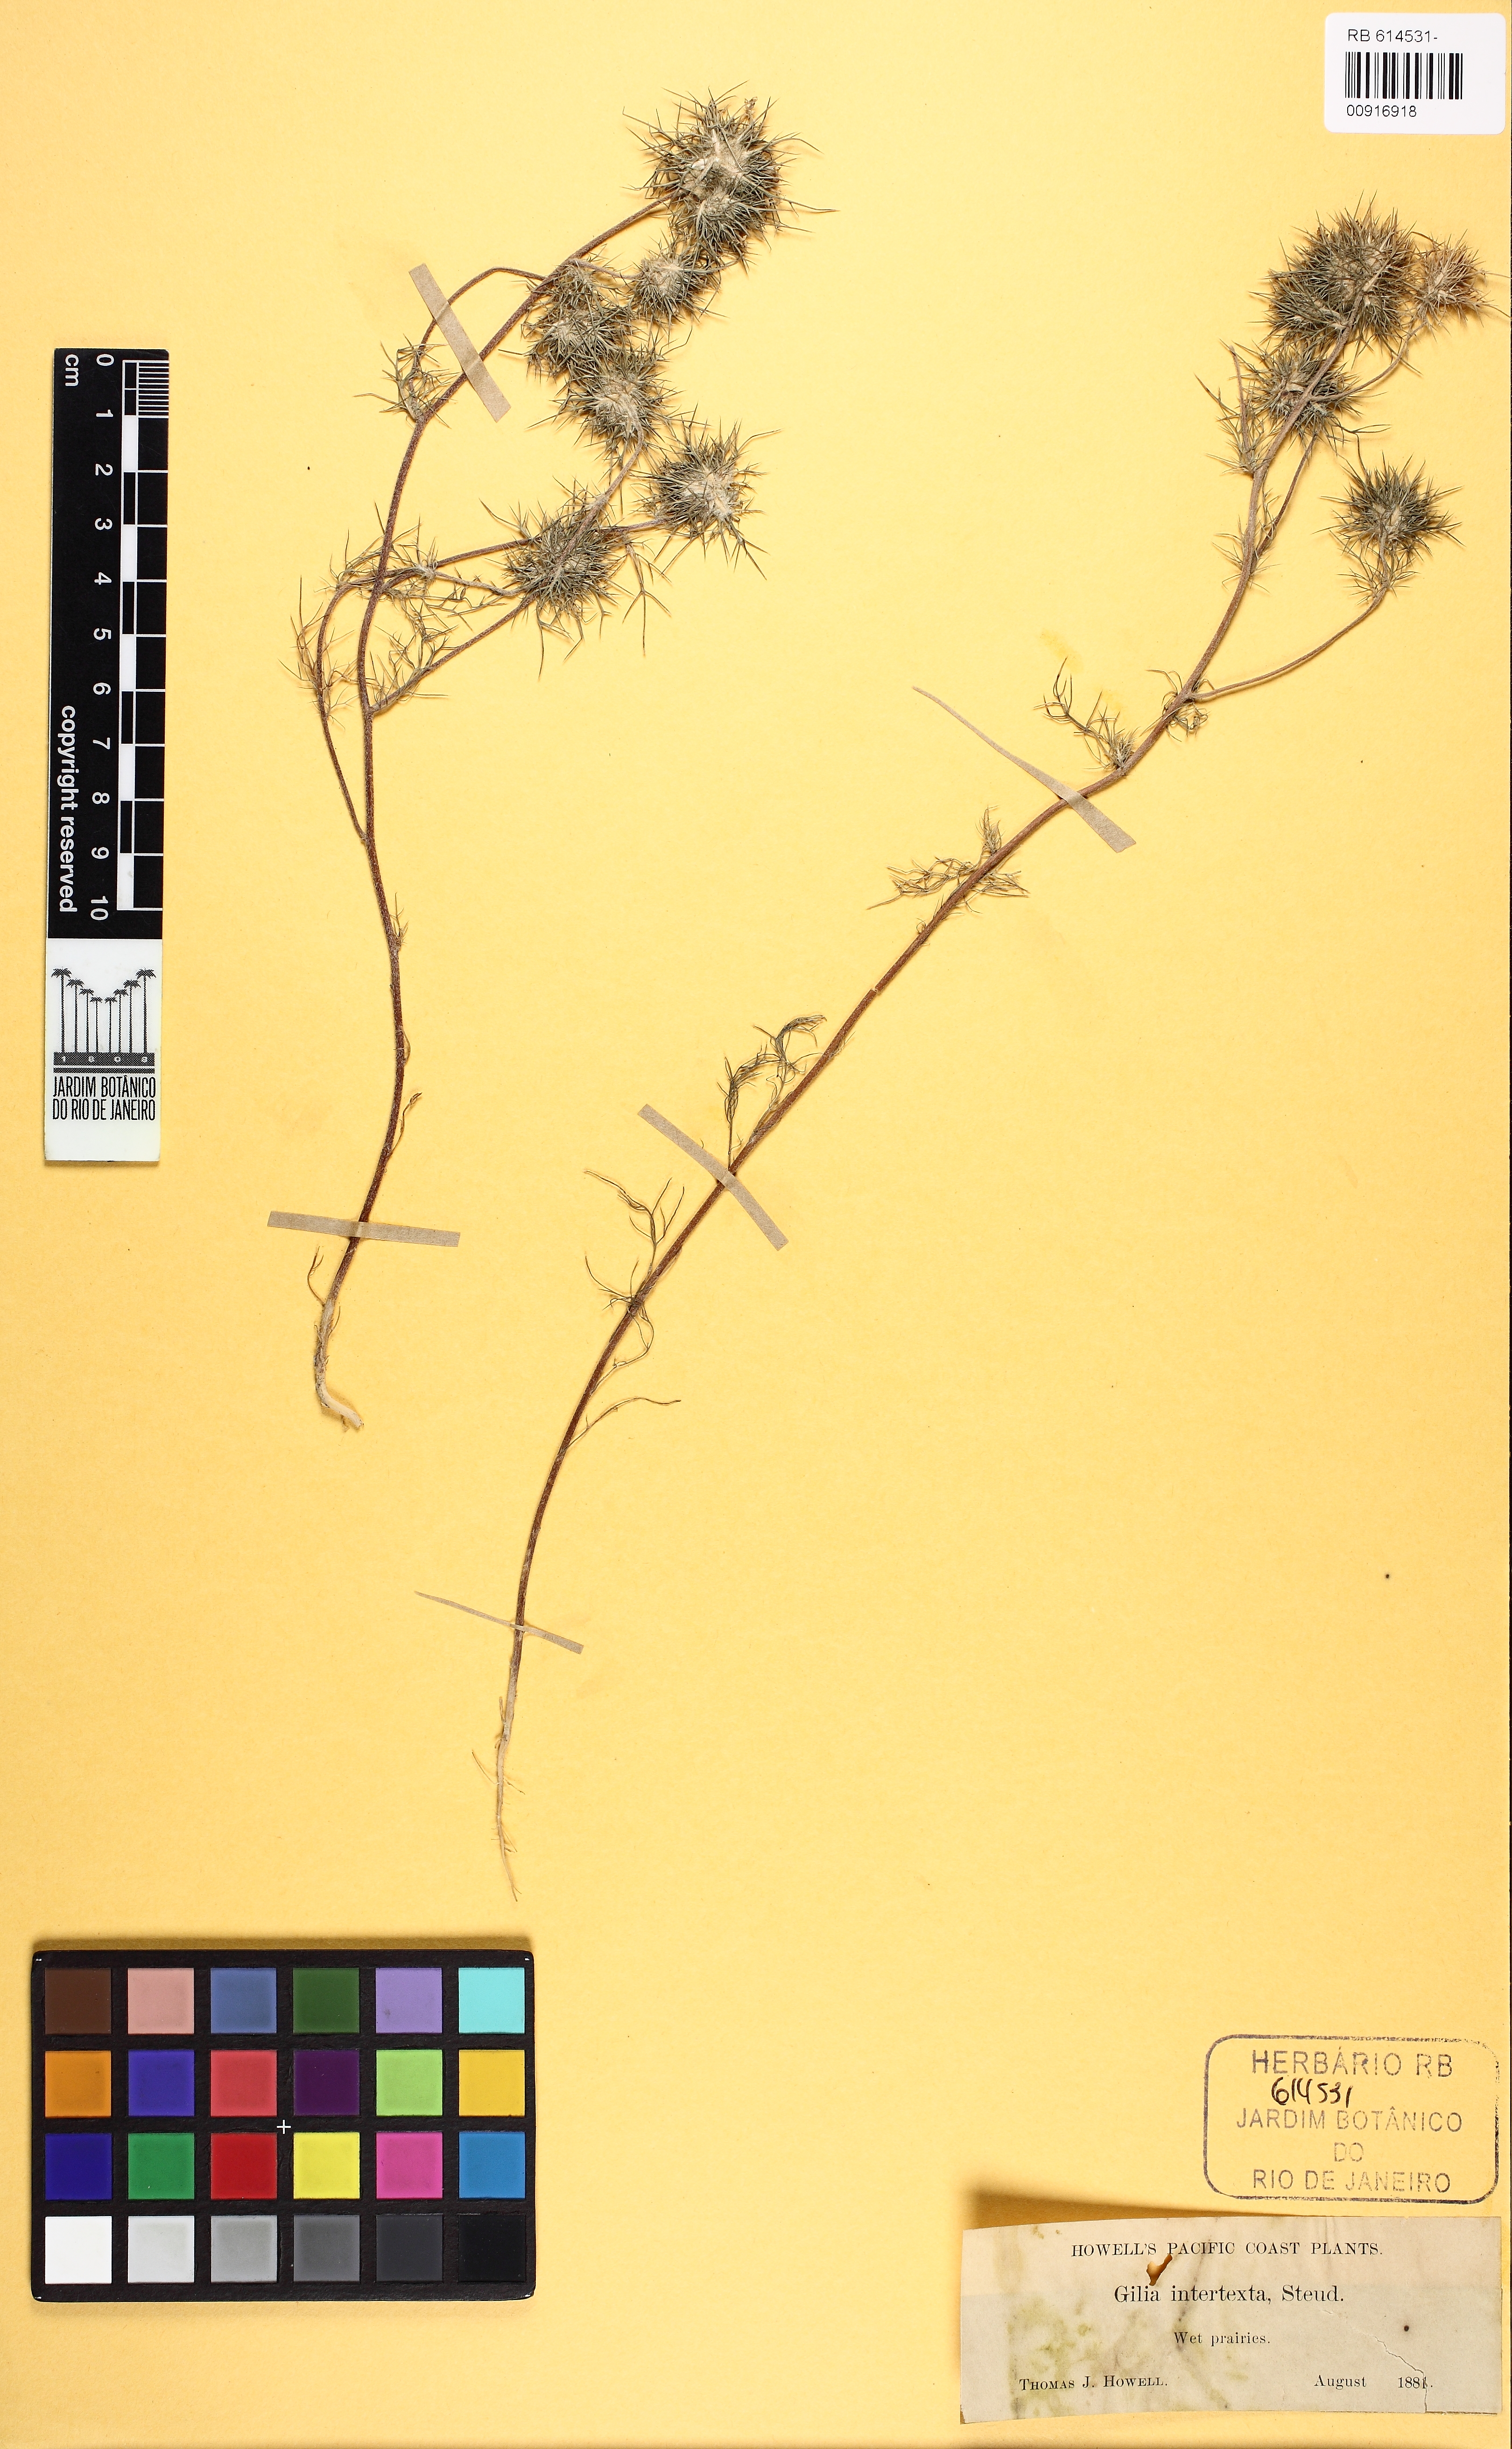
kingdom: Plantae
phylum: Tracheophyta
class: Magnoliopsida
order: Ericales
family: Polemoniaceae
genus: Navarretia
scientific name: Navarretia intertexta
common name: Needle-leaved navarretia
